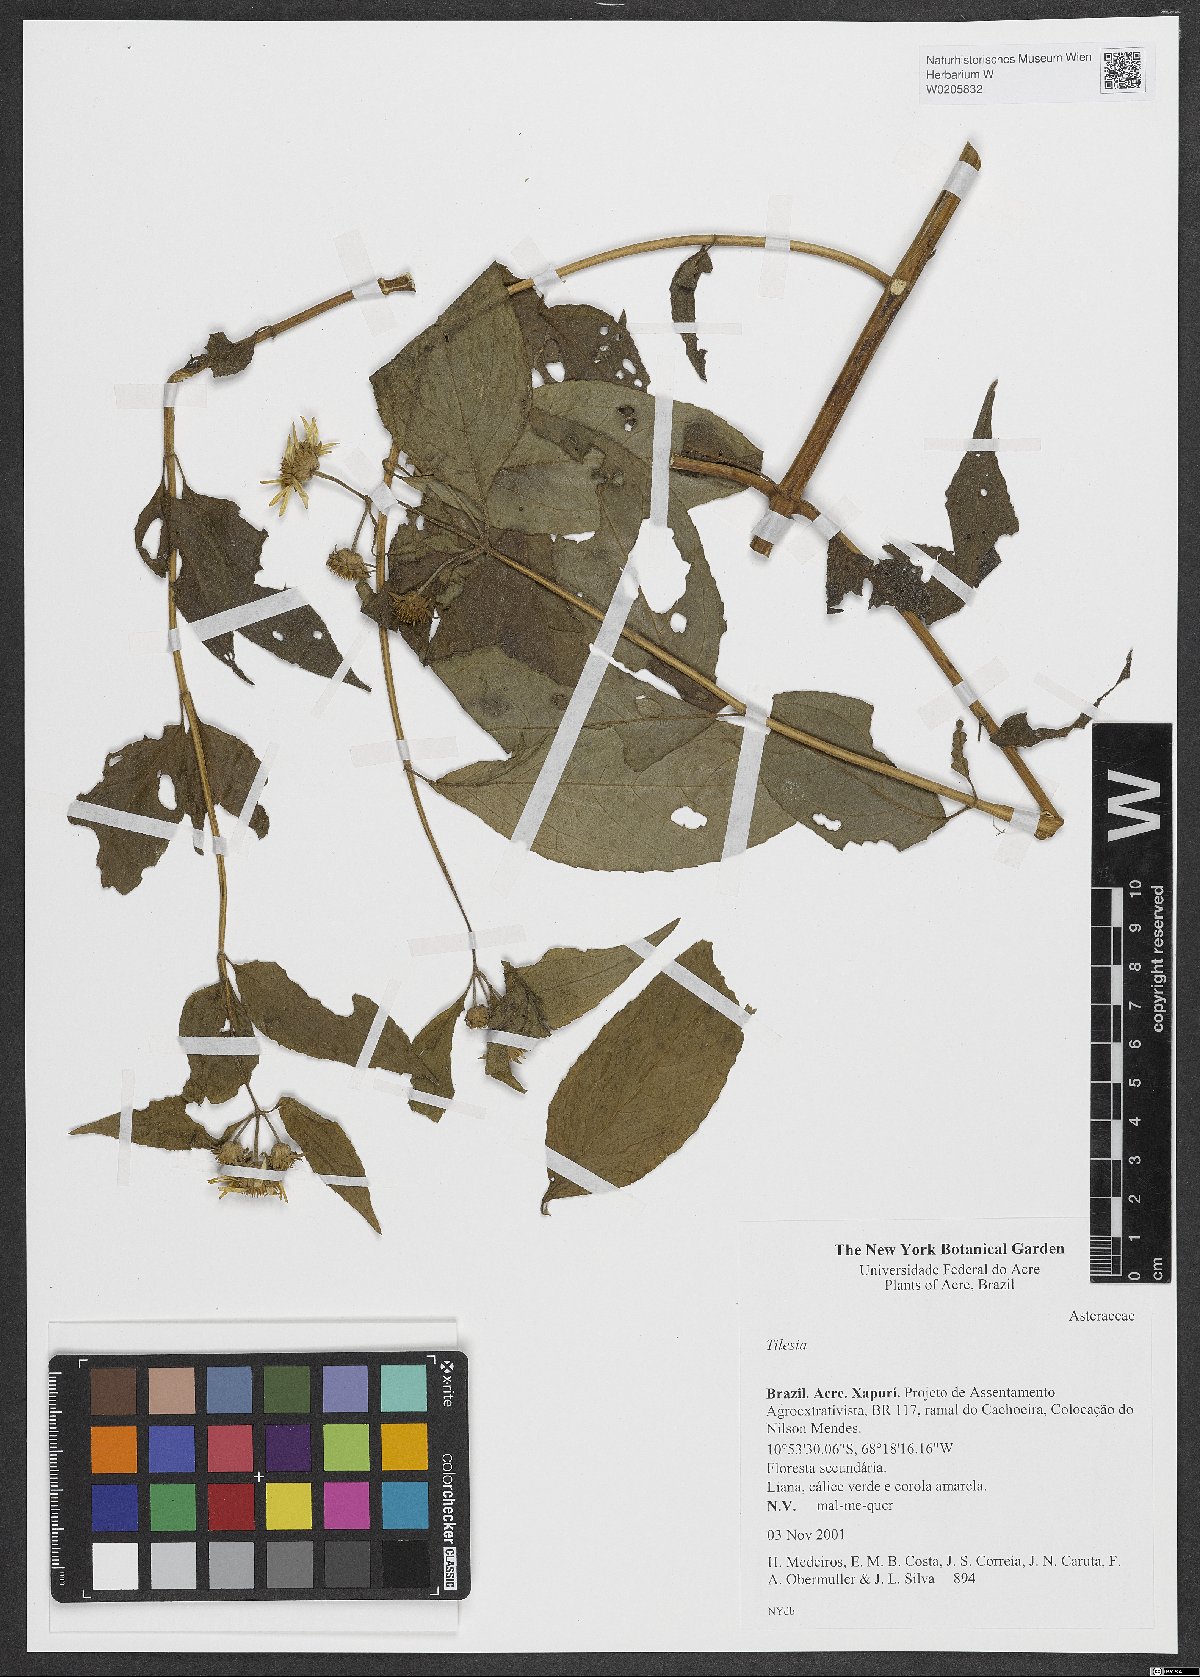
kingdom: Plantae
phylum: Tracheophyta
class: Magnoliopsida
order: Asterales
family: Asteraceae
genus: Tilesia
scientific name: Tilesia
